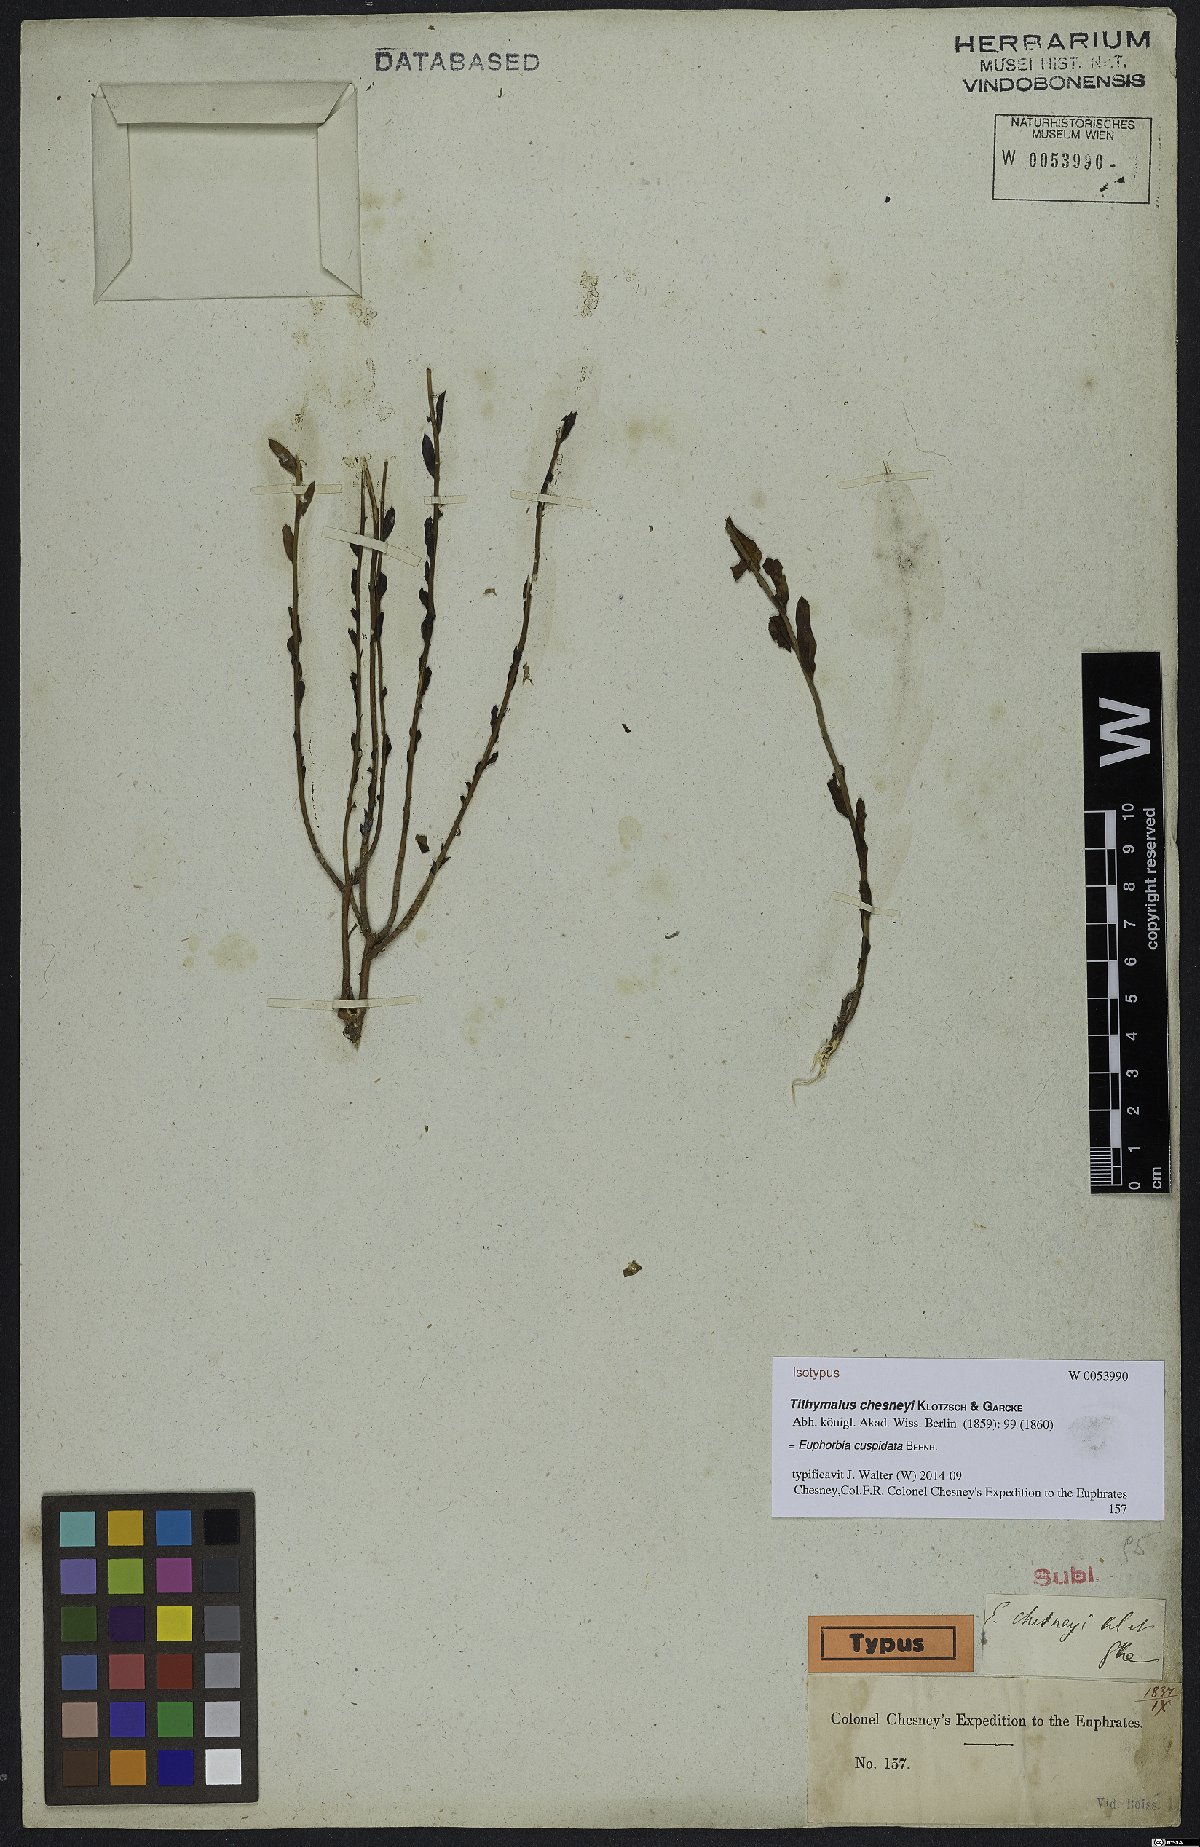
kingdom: Plantae
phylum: Tracheophyta
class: Magnoliopsida
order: Malpighiales
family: Euphorbiaceae
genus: Euphorbia
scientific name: Euphorbia striata
